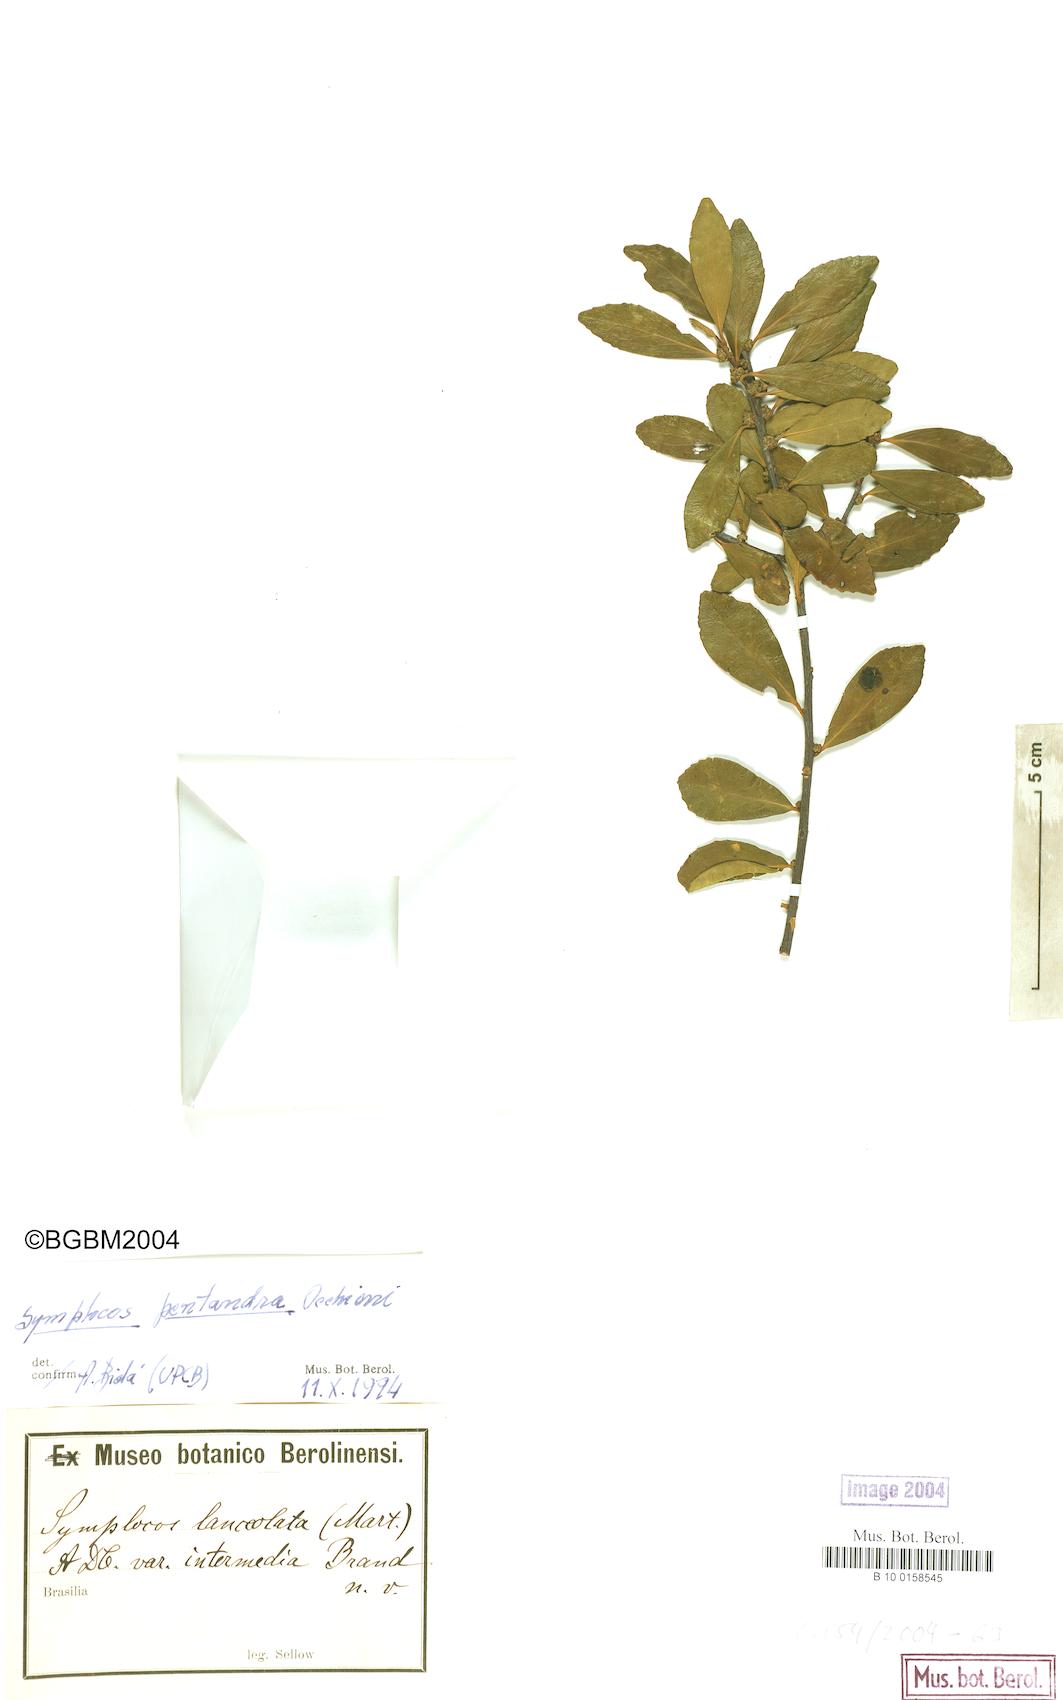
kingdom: Plantae
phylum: Tracheophyta
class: Magnoliopsida
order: Ericales
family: Symplocaceae
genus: Symplocos
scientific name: Symplocos pentandra
